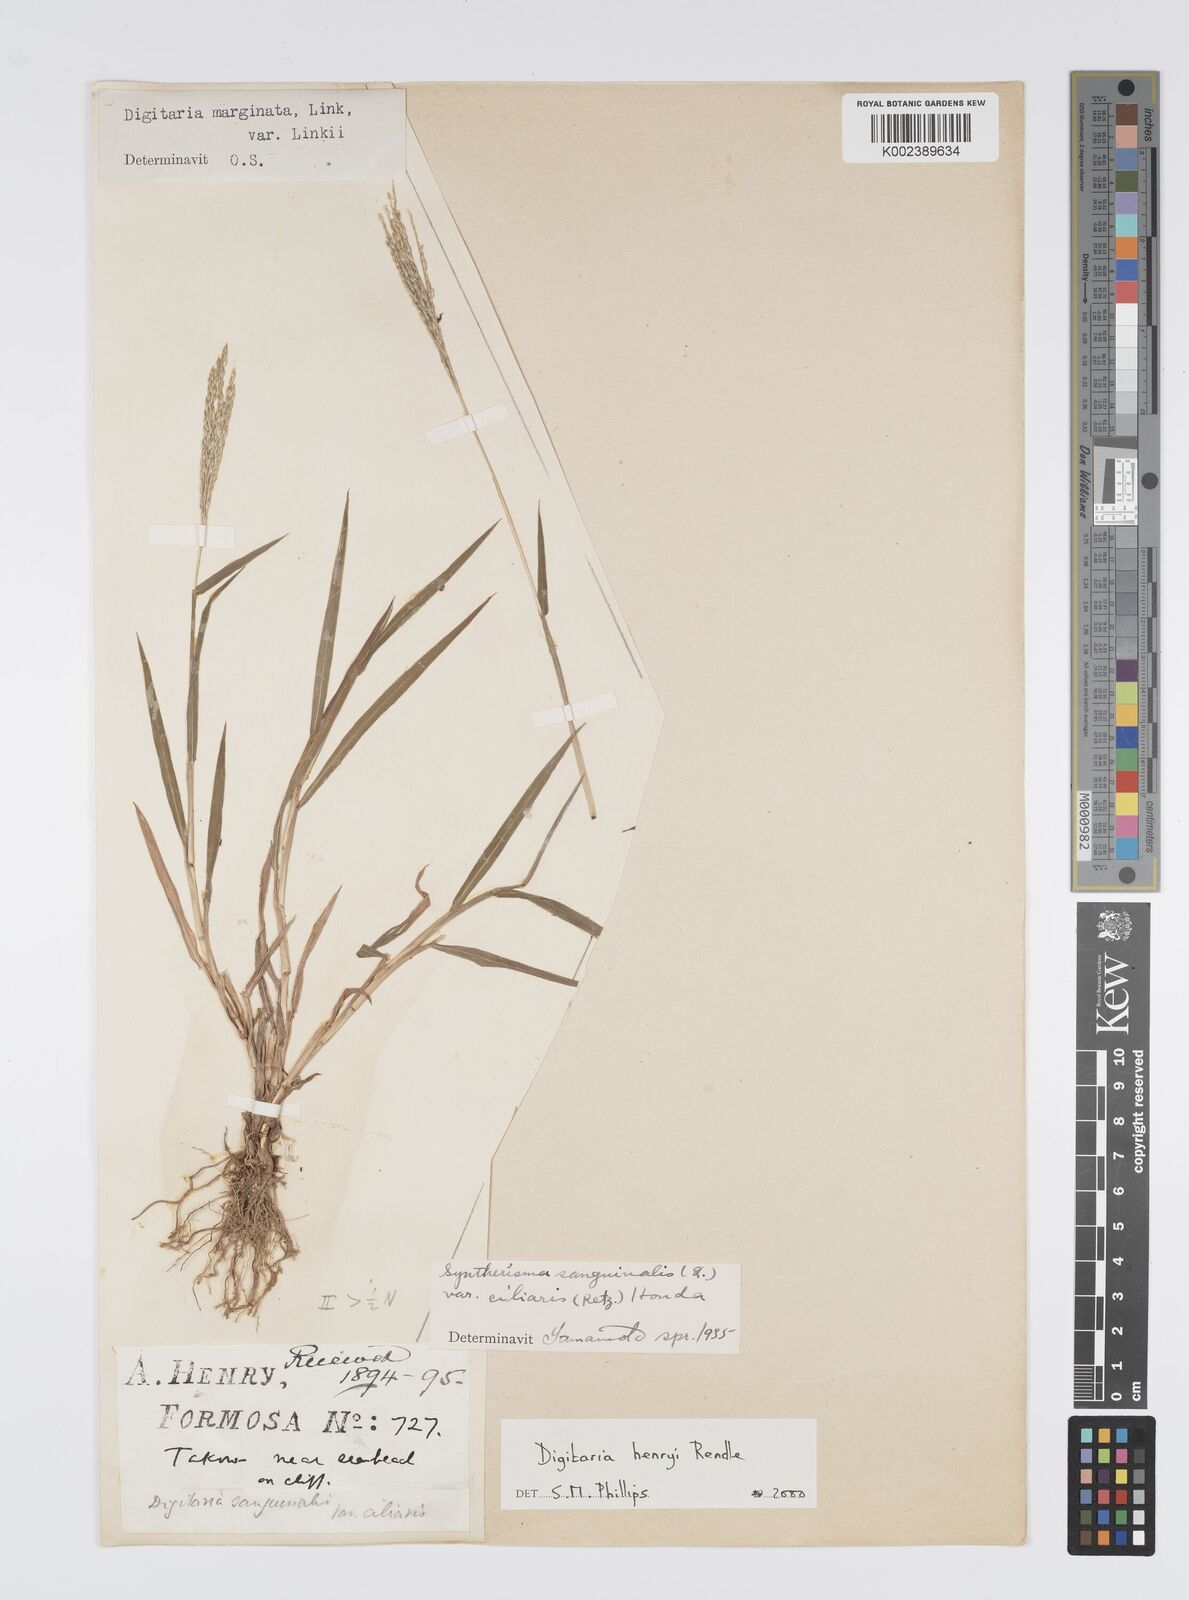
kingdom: Plantae
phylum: Tracheophyta
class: Liliopsida
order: Poales
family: Poaceae
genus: Digitaria
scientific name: Digitaria ciliaris
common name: Tropical finger-grass
